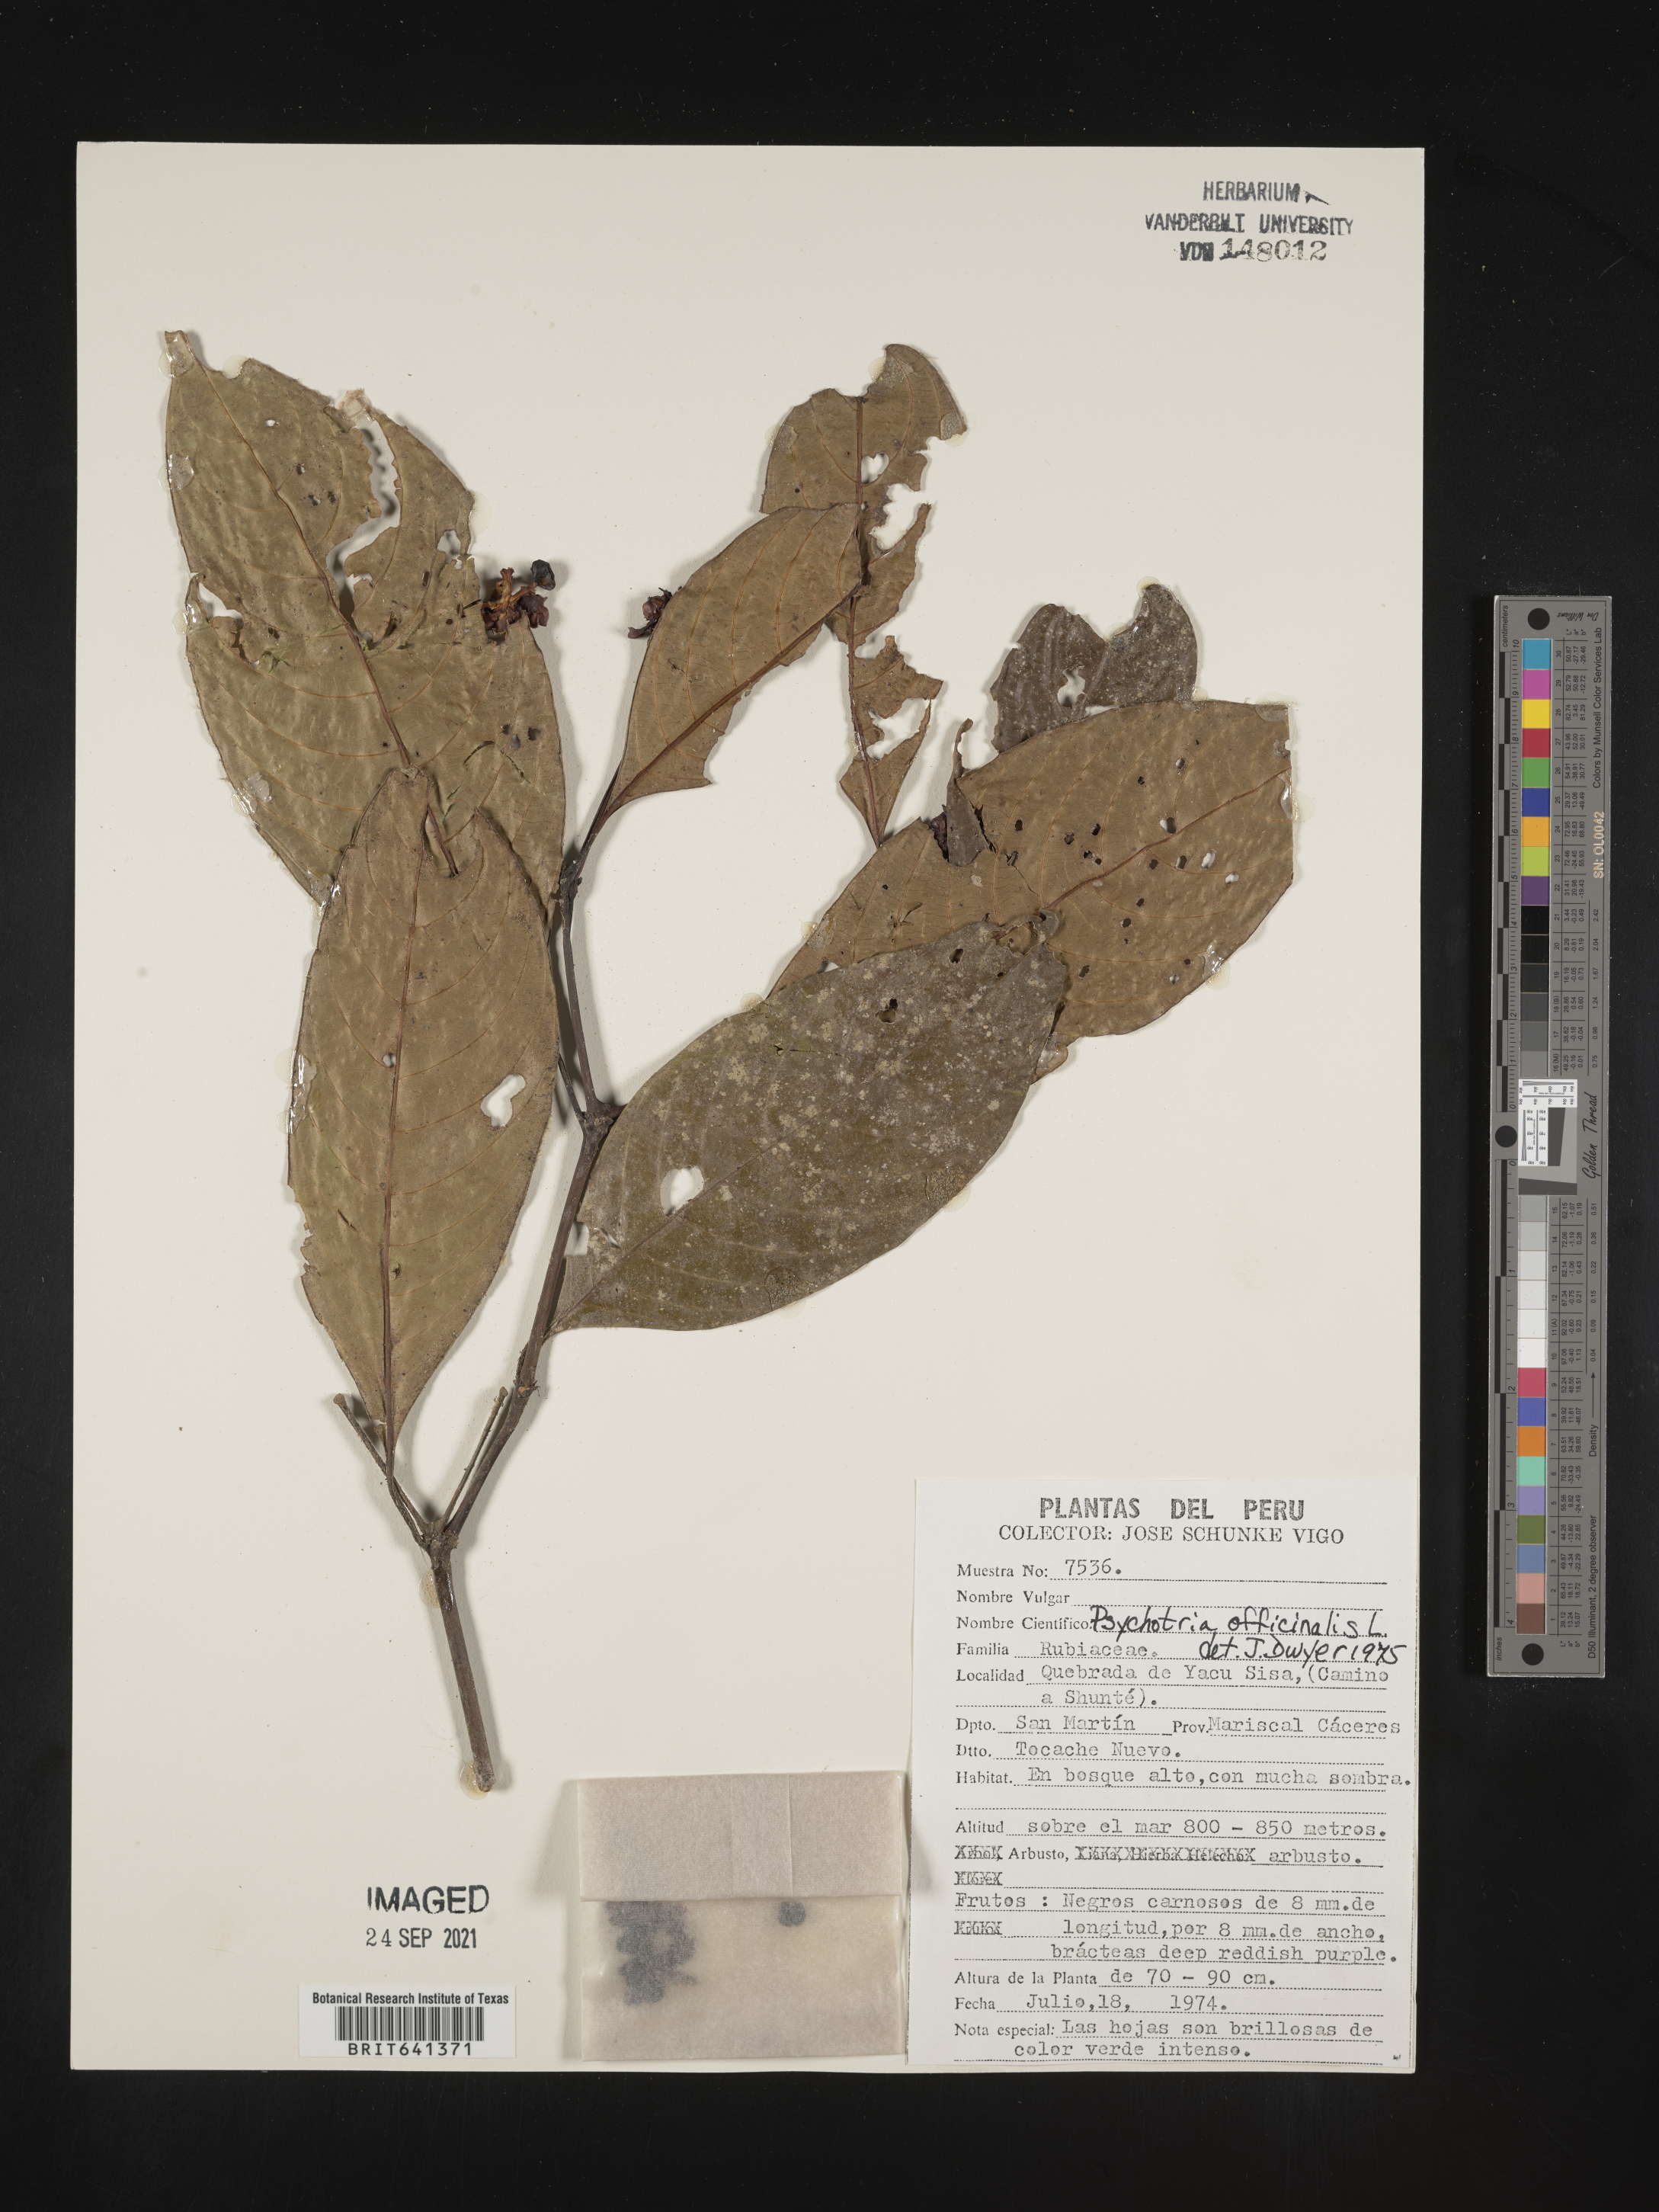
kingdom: Plantae
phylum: Tracheophyta
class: Magnoliopsida
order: Gentianales
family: Rubiaceae
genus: Psychotria
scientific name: Psychotria
